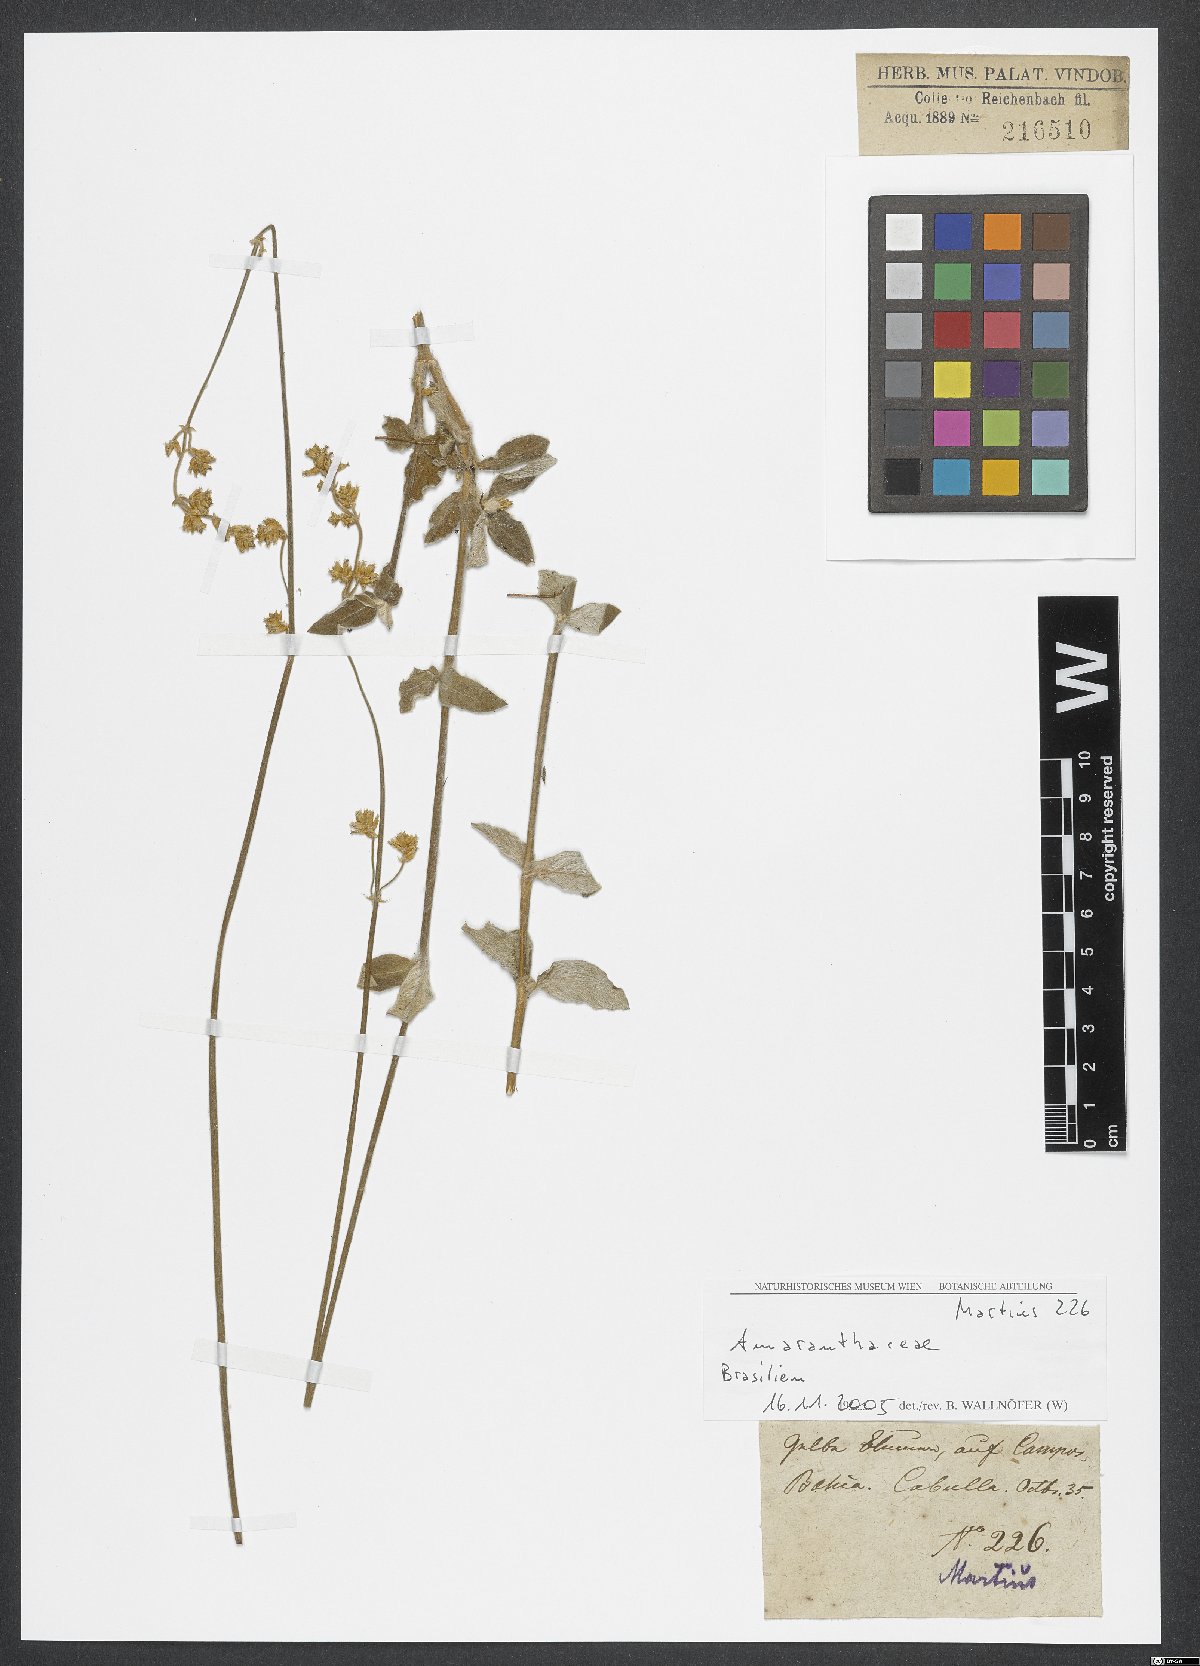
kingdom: Plantae
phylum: Tracheophyta
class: Magnoliopsida
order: Caryophyllales
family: Amaranthaceae
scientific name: Amaranthaceae
